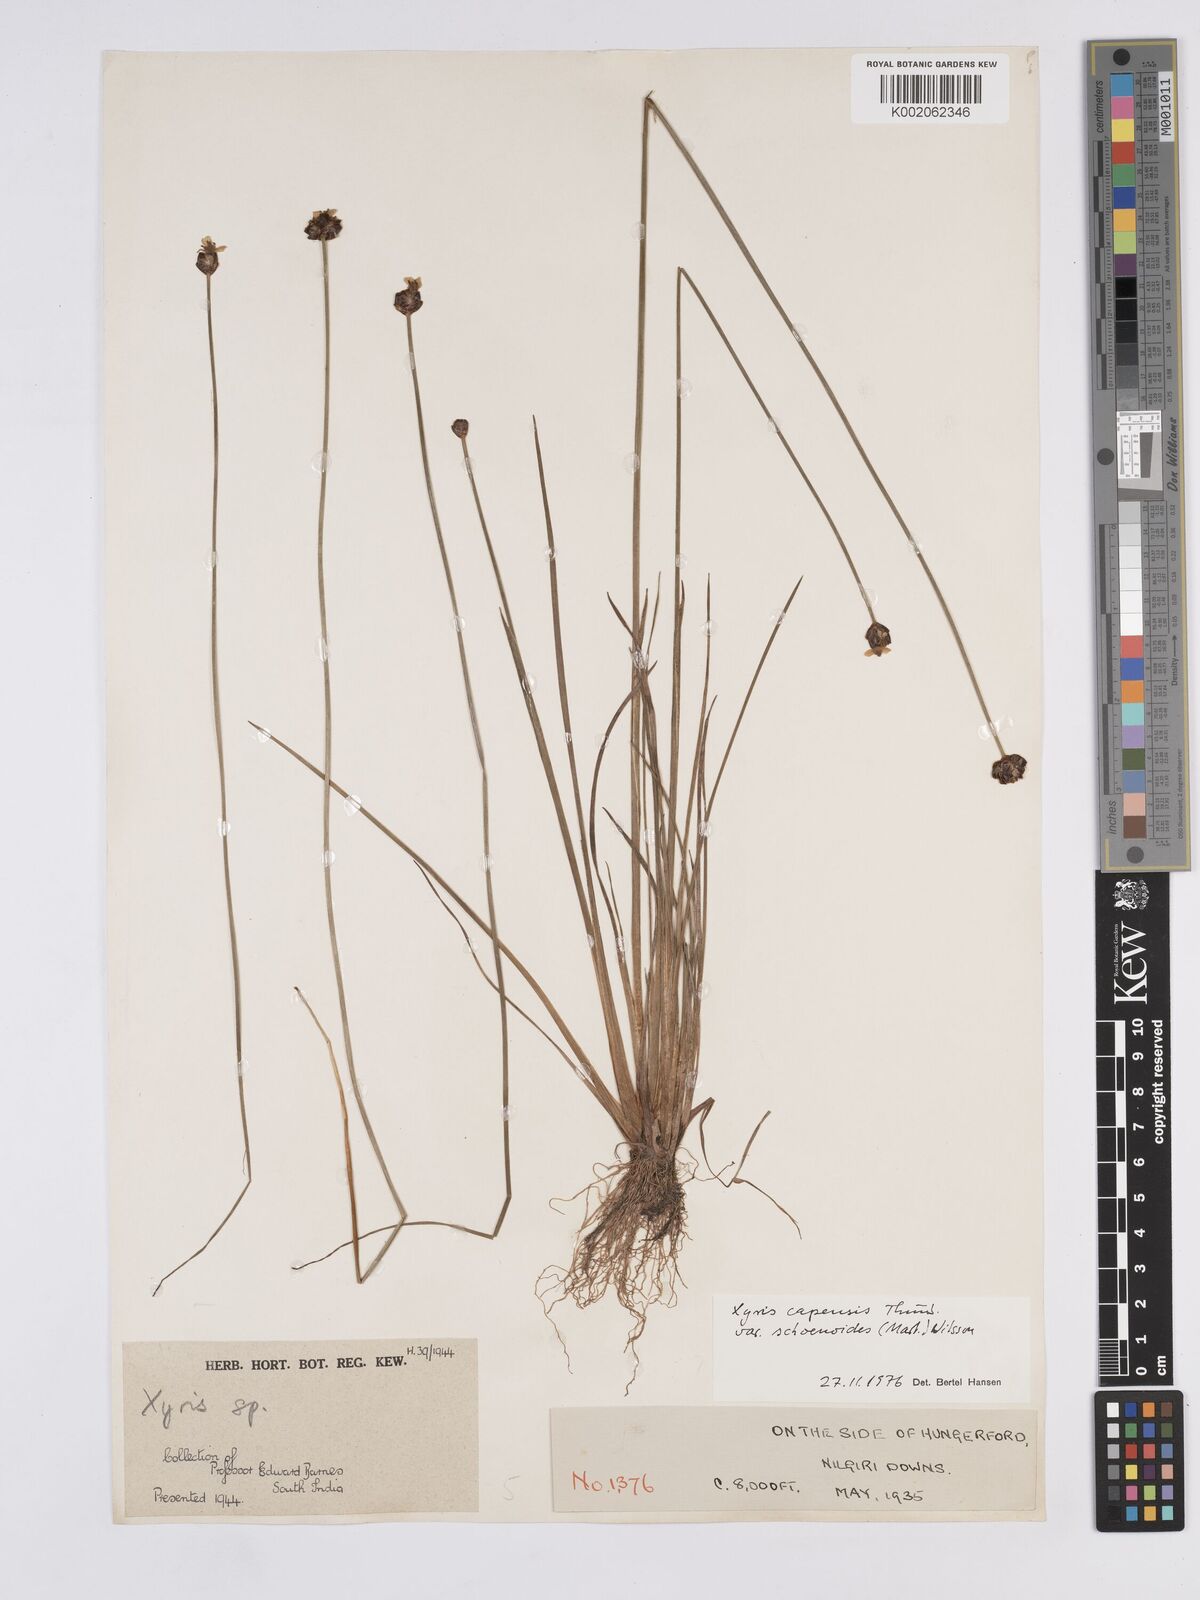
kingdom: Plantae
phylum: Tracheophyta
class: Liliopsida
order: Poales
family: Xyridaceae
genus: Xyris
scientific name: Xyris capensis
